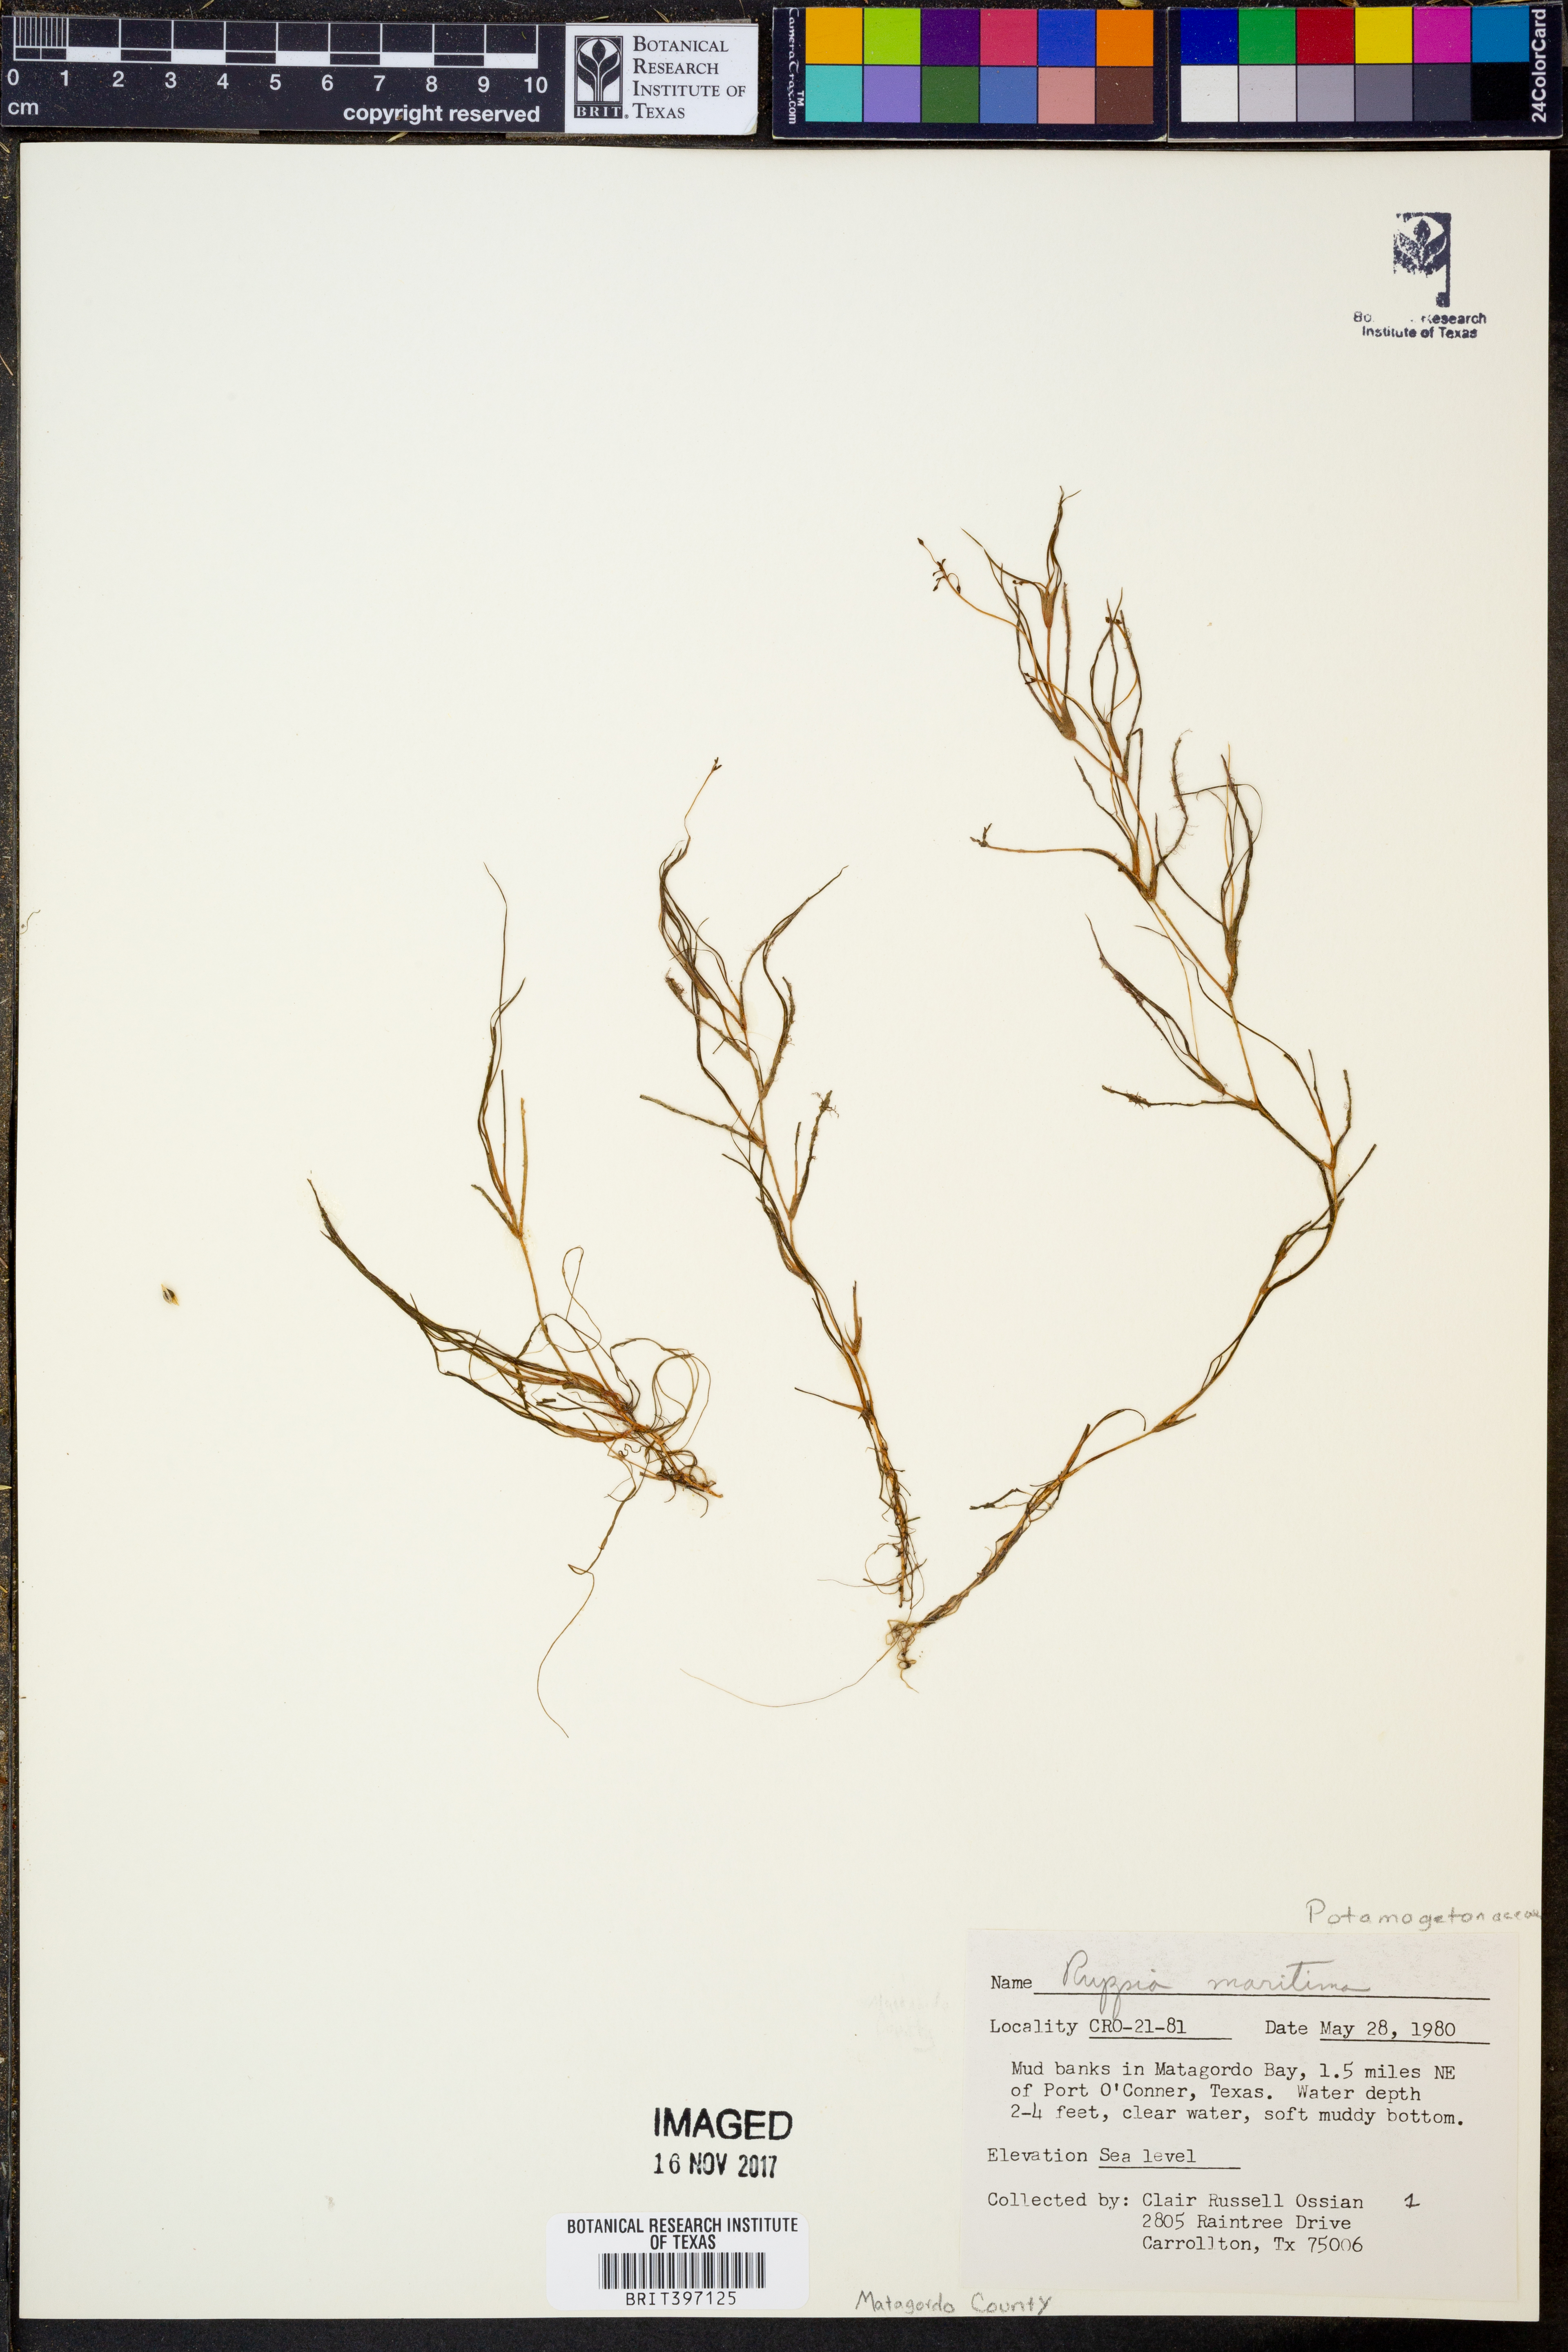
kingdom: Plantae
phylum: Tracheophyta
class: Liliopsida
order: Alismatales
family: Ruppiaceae
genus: Ruppia
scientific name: Ruppia maritima
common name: Beaked tasselweed
